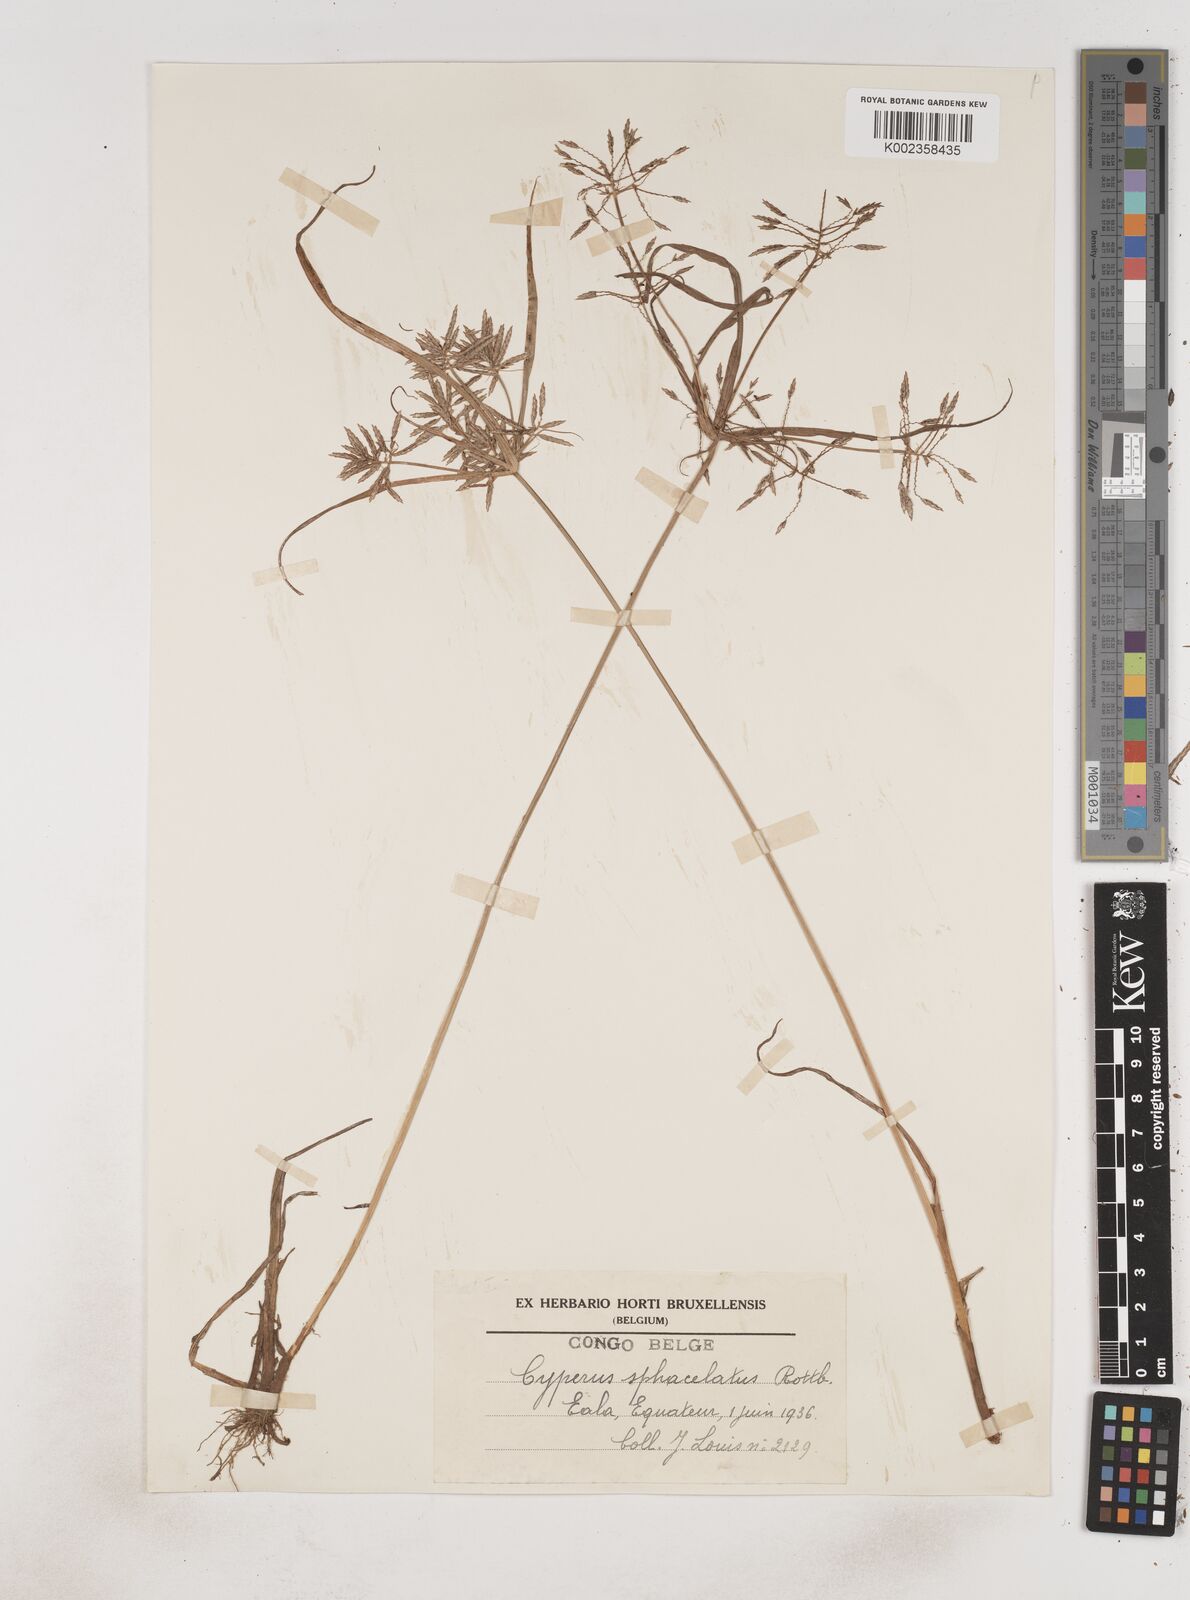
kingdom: Plantae
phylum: Tracheophyta
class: Liliopsida
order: Poales
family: Cyperaceae
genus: Cyperus
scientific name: Cyperus sphacelatus
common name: Roadside flatsedge
